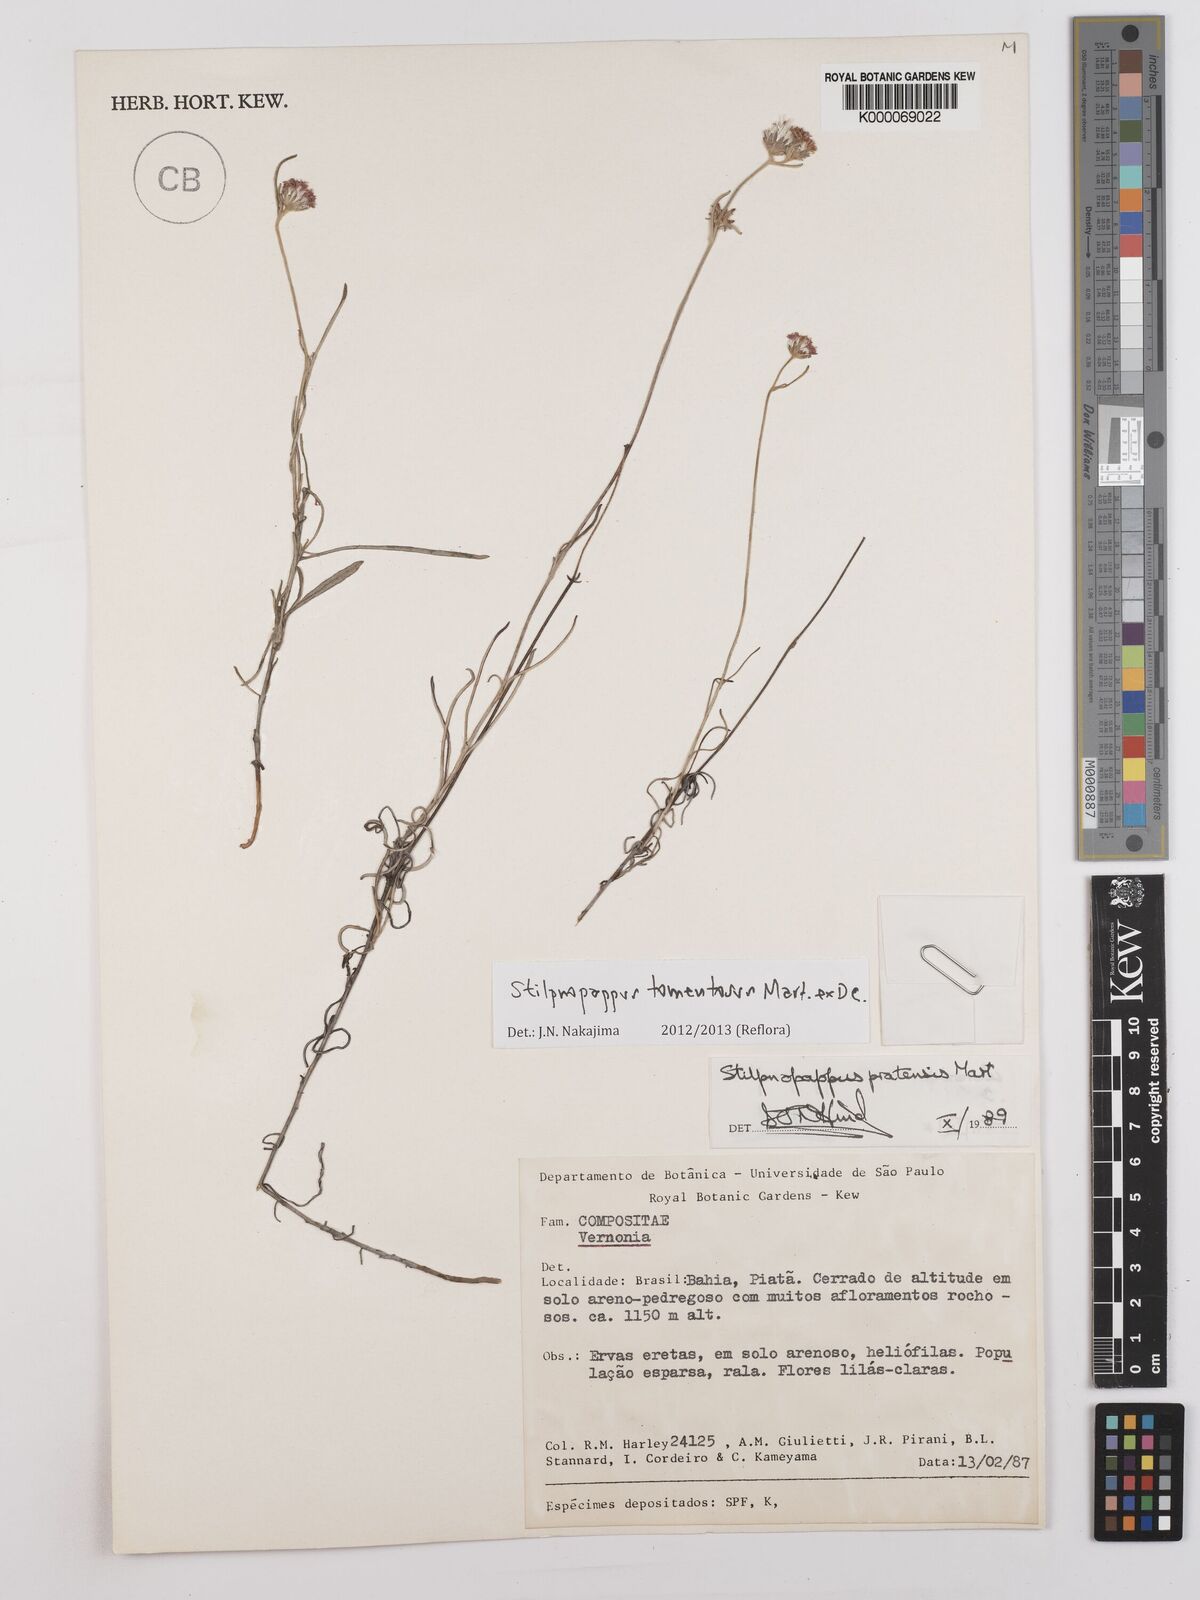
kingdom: Plantae
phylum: Tracheophyta
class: Magnoliopsida
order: Asterales
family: Asteraceae
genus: Stilpnopappus
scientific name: Stilpnopappus tomentosus
